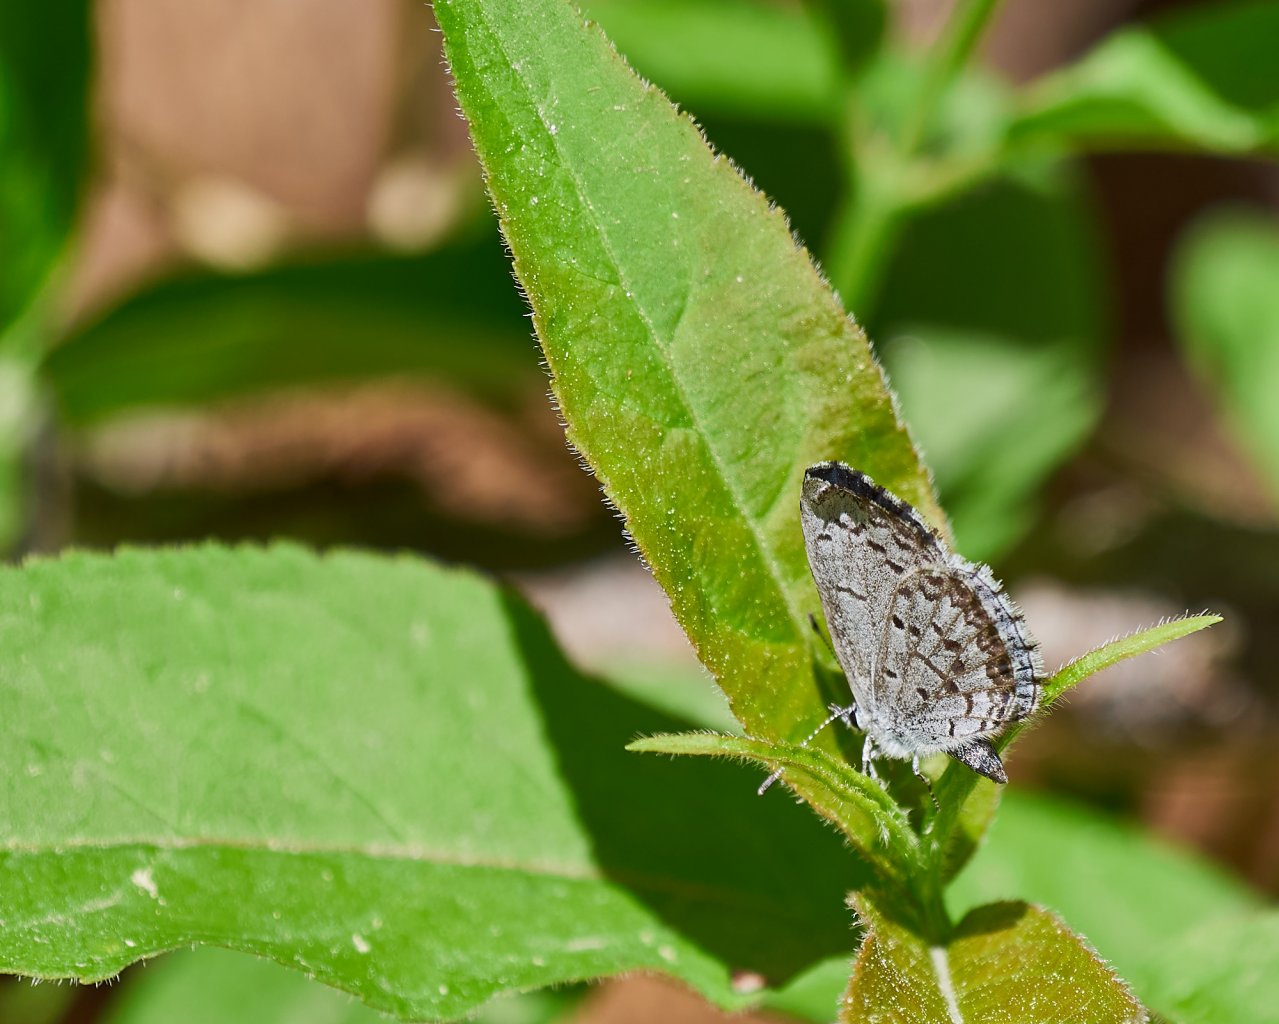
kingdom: Animalia
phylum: Arthropoda
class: Insecta
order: Lepidoptera
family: Lycaenidae
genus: Celastrina
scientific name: Celastrina lucia
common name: Northern Spring Azure
